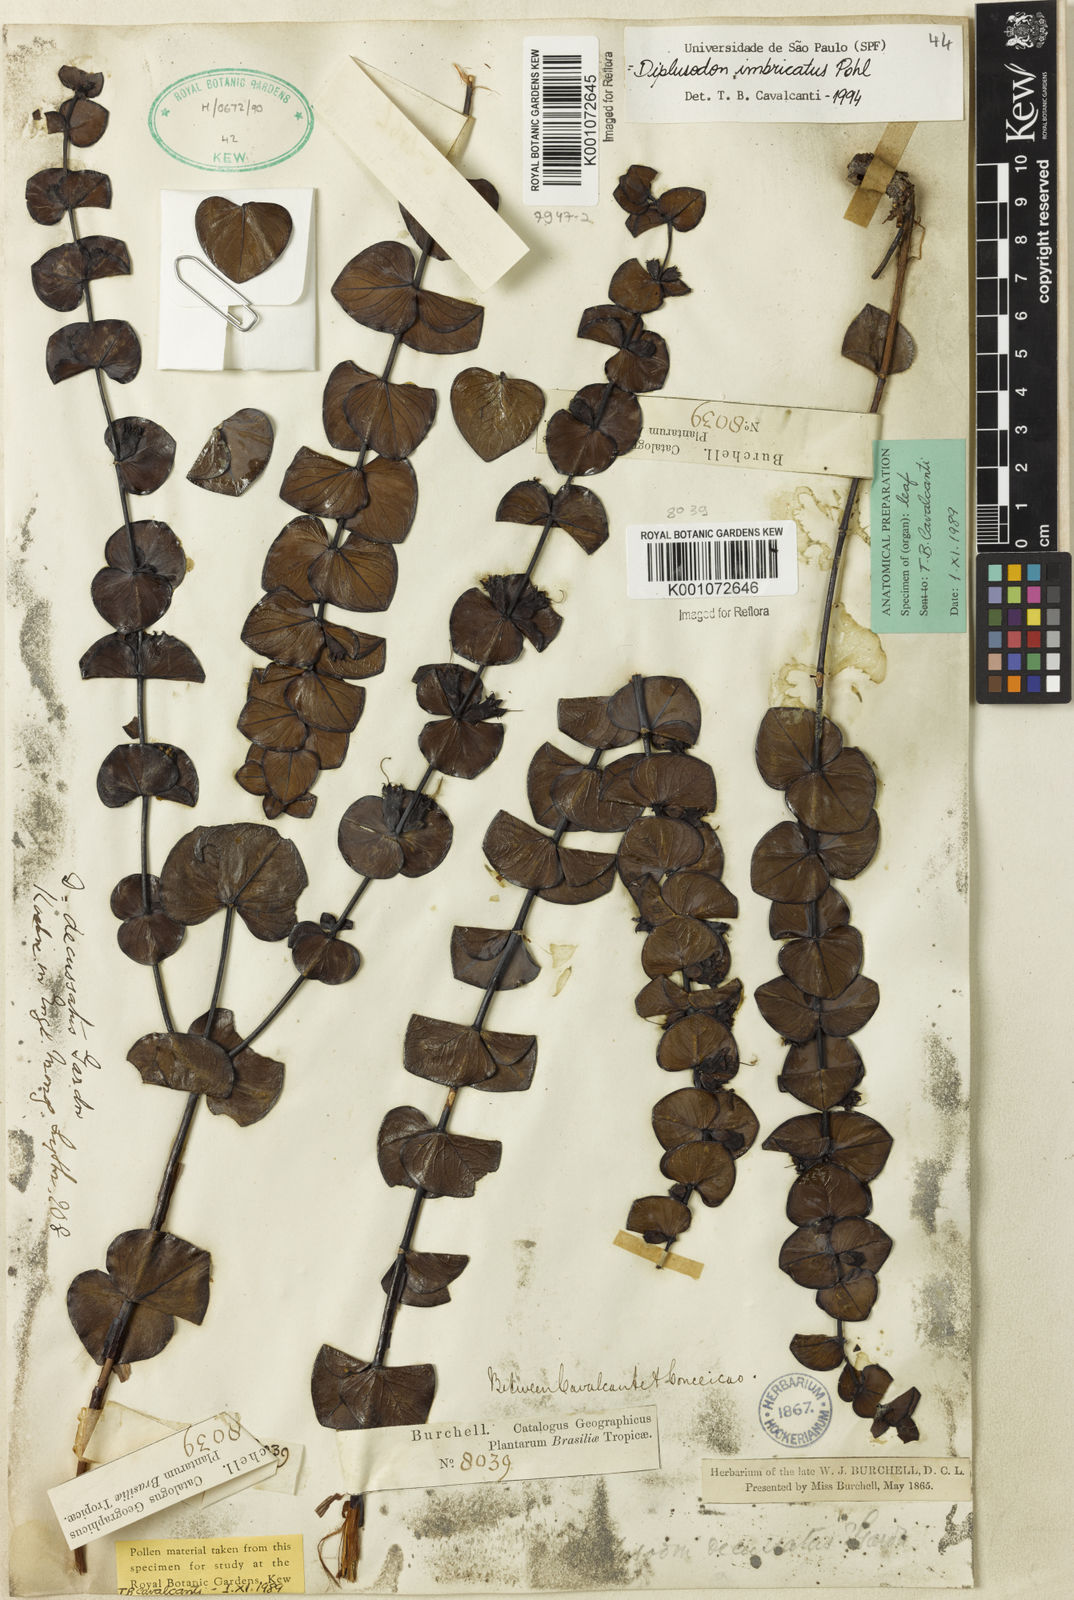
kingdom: Plantae
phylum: Tracheophyta
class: Magnoliopsida
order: Myrtales
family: Lythraceae
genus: Diplusodon
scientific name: Diplusodon imbricatus
